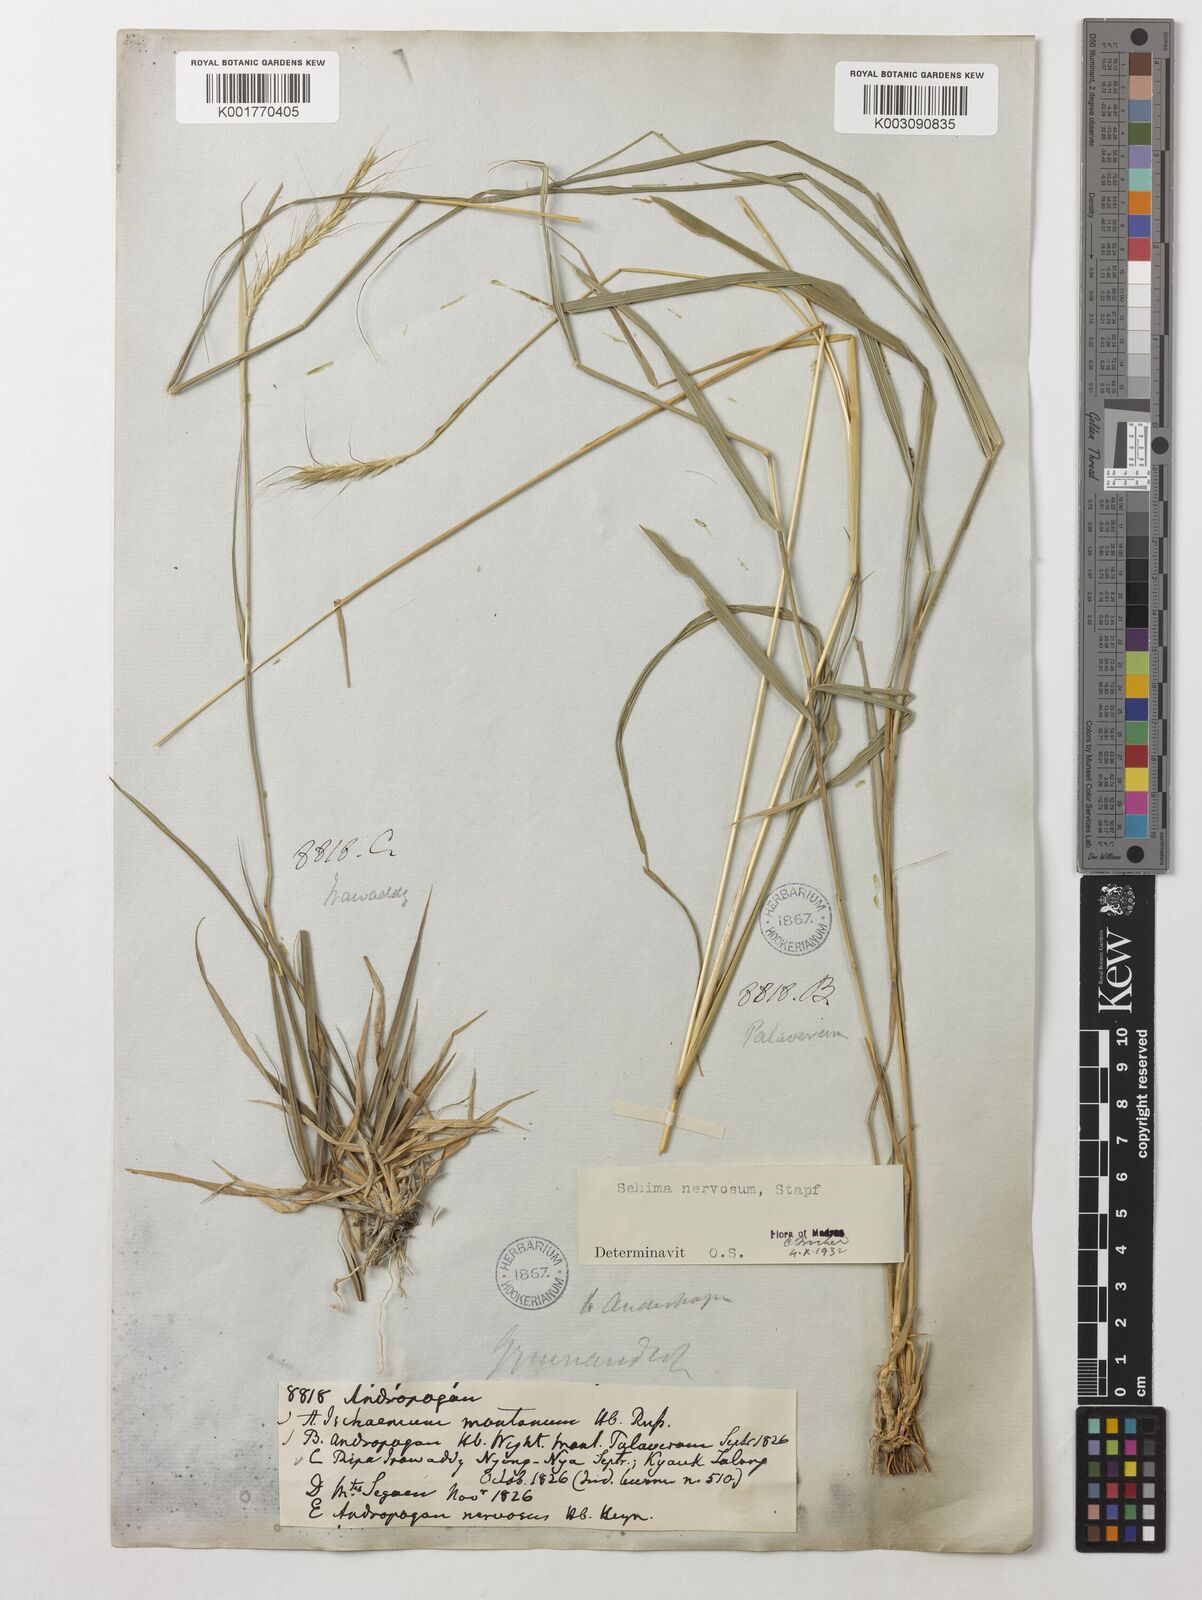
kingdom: Plantae
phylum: Tracheophyta
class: Liliopsida
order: Poales
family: Poaceae
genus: Sehima
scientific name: Sehima nervosa
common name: Rat-tail grass
